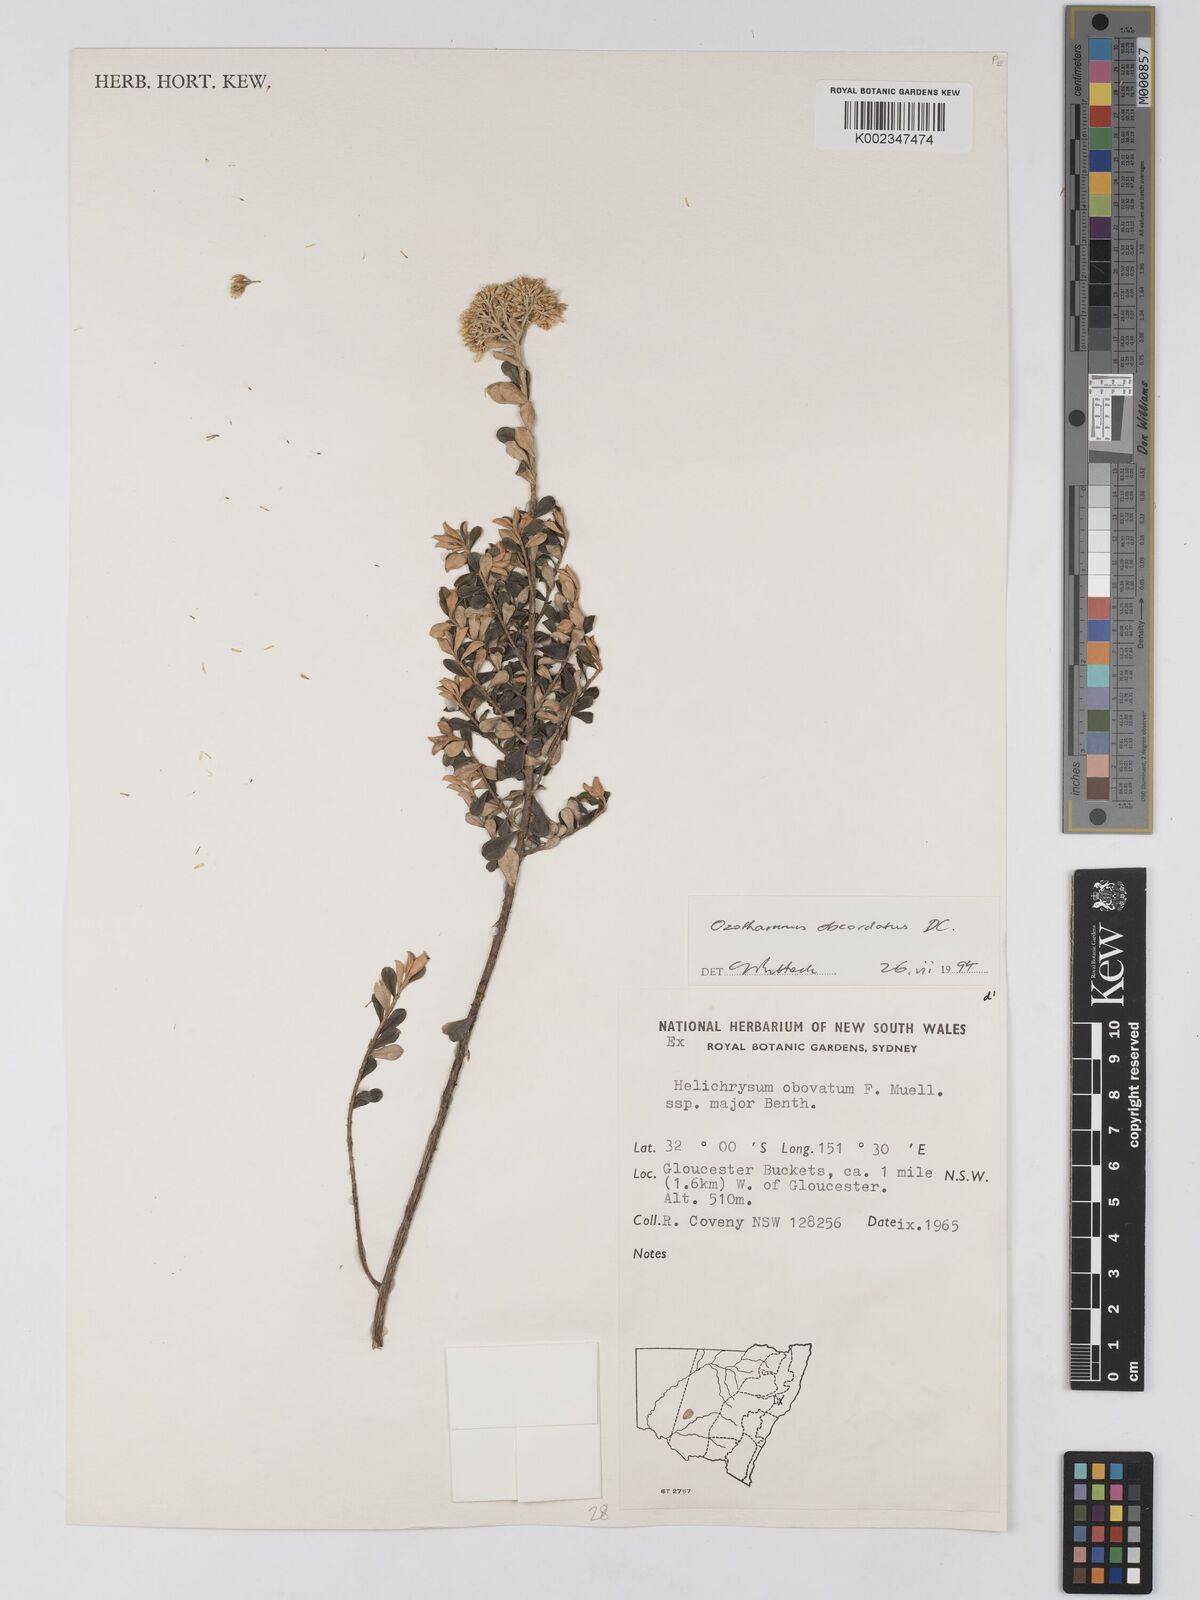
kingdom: Plantae
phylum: Tracheophyta
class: Magnoliopsida
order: Asterales
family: Asteraceae
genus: Ozothamnus
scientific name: Ozothamnus
